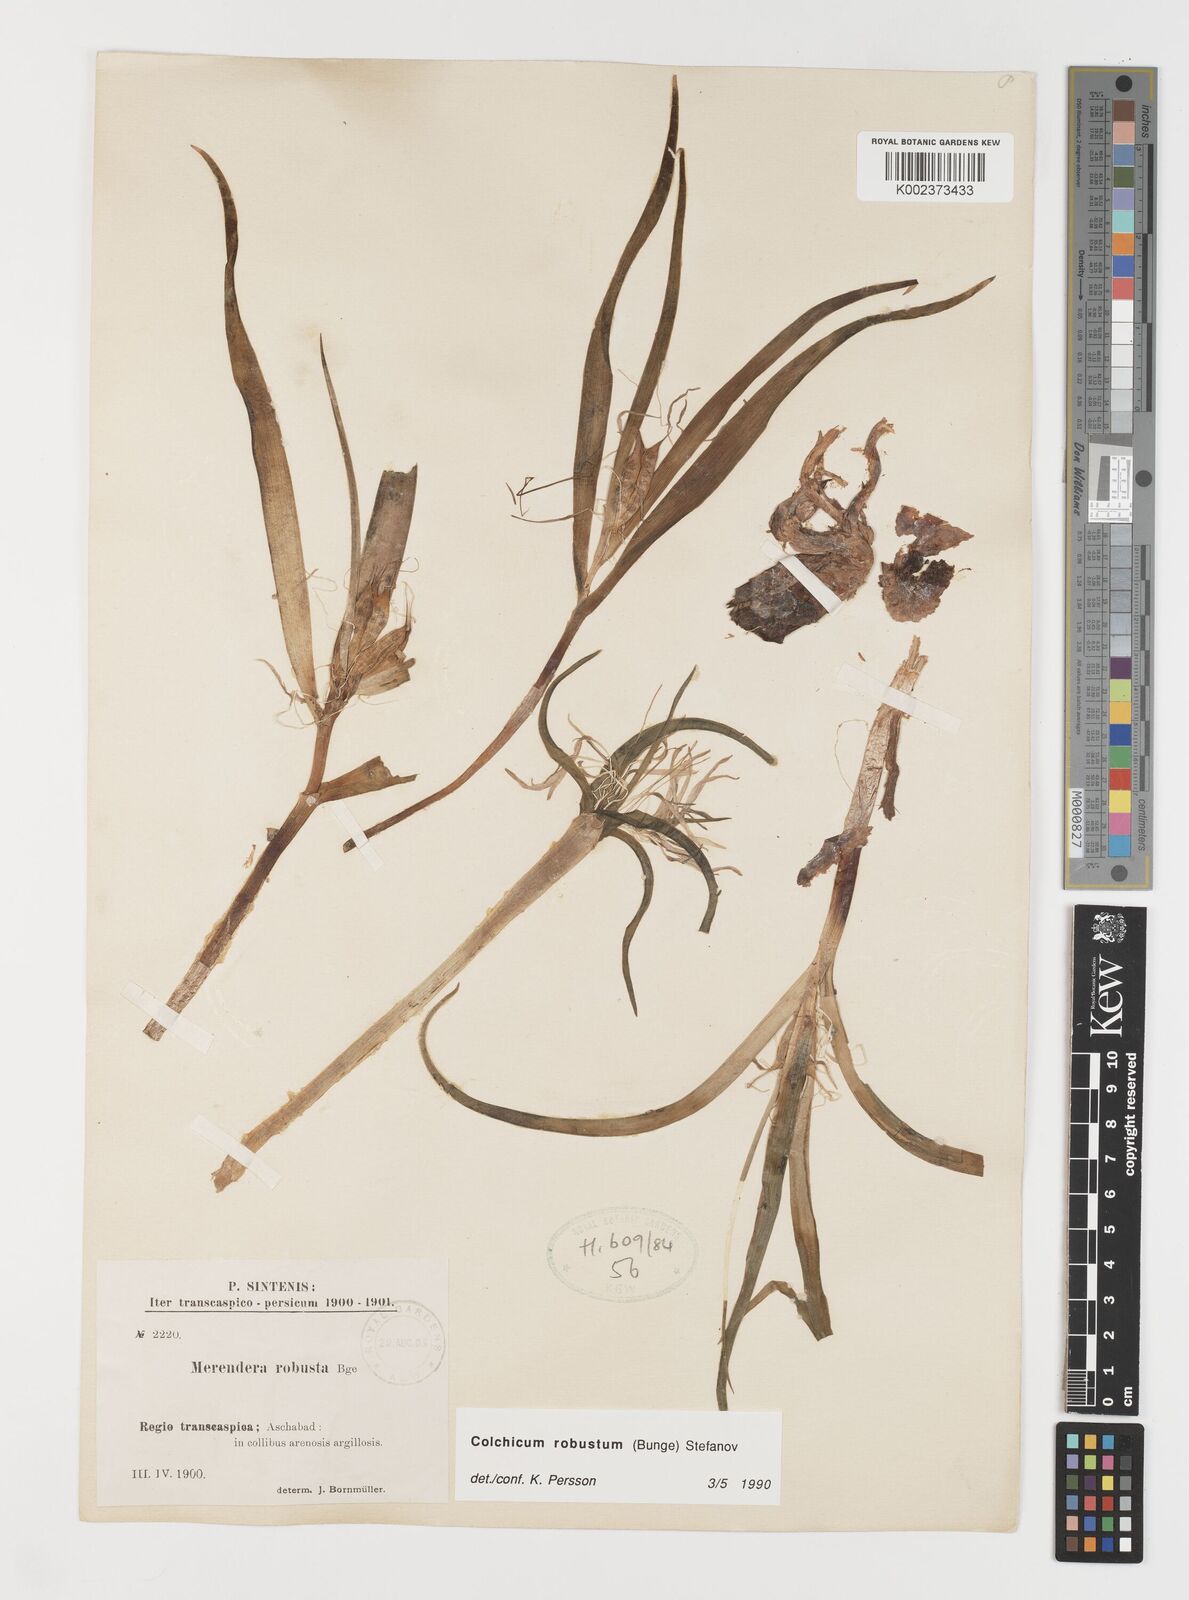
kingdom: Plantae
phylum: Tracheophyta
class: Liliopsida
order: Liliales
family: Colchicaceae
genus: Colchicum
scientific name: Colchicum robustum
